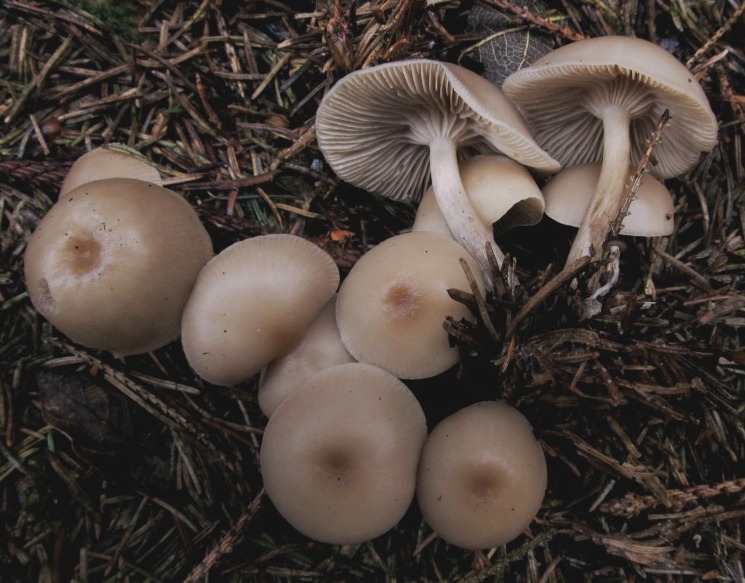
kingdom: Fungi
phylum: Basidiomycota
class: Agaricomycetes
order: Agaricales
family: Tricholomataceae
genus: Clitocybe
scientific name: Clitocybe metachroa
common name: grå tragthat
